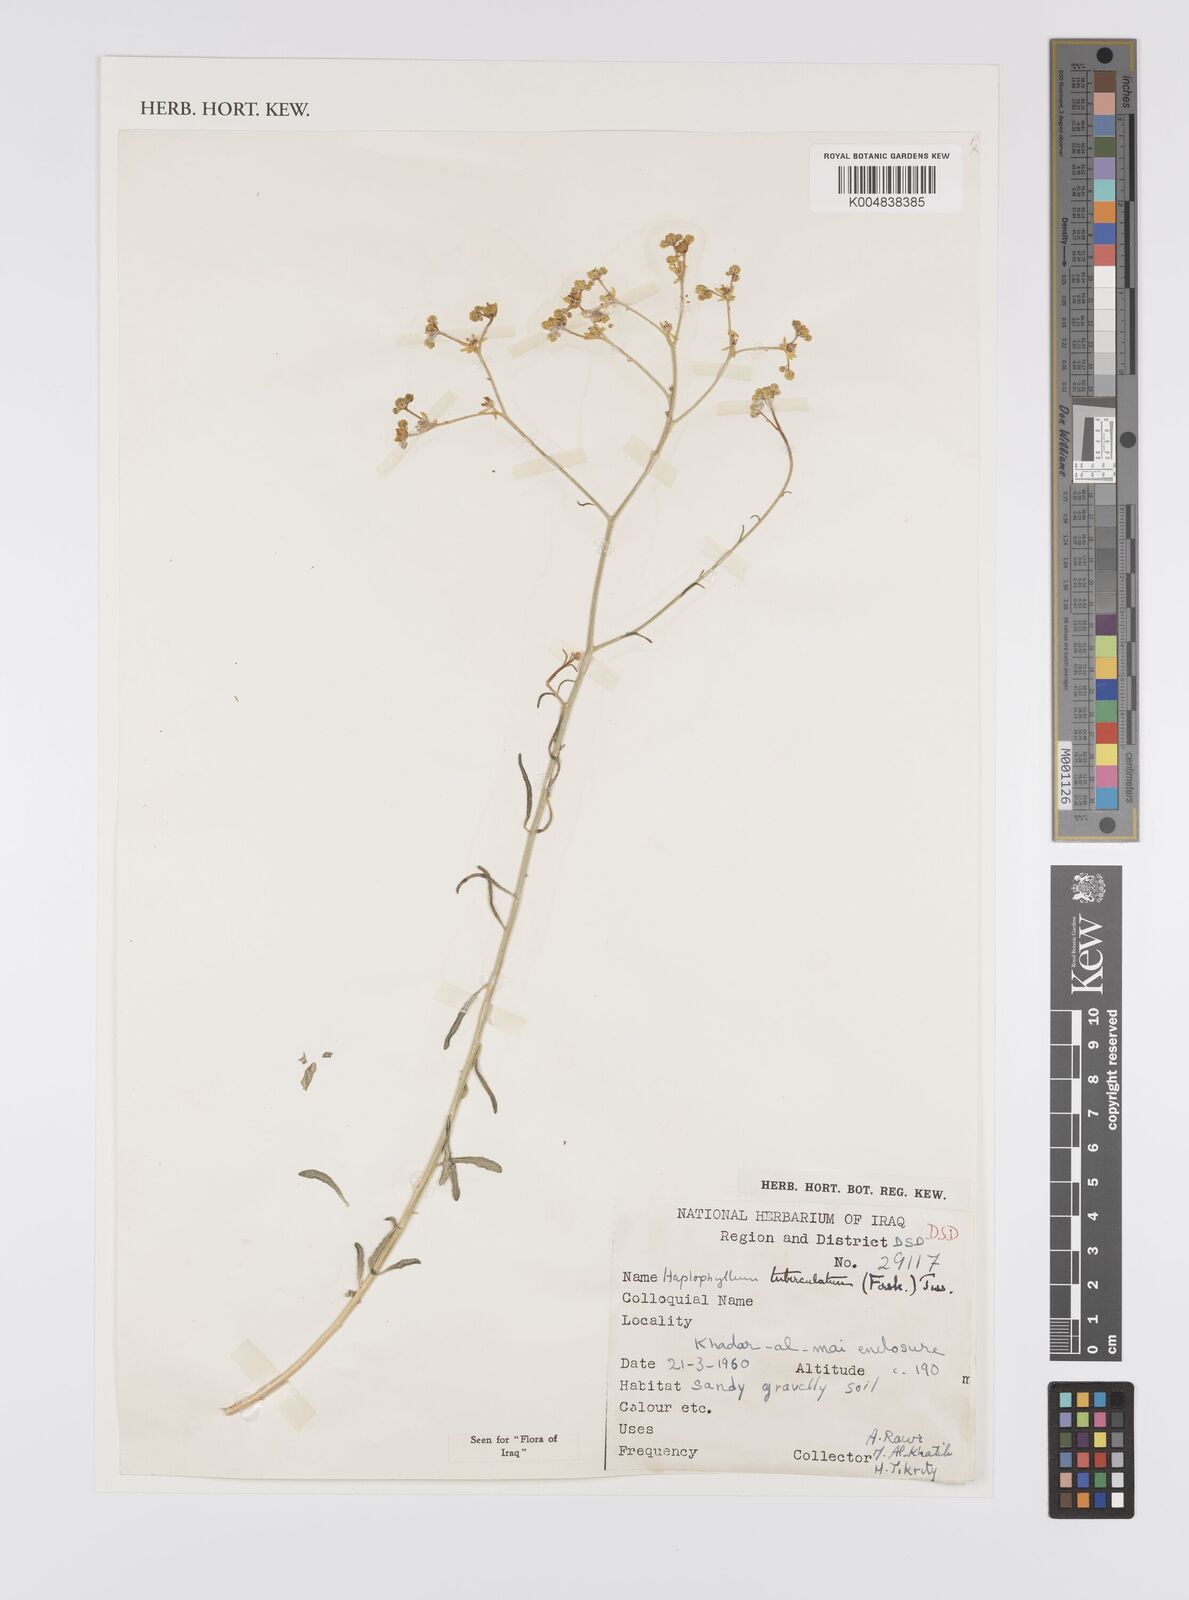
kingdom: Plantae
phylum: Tracheophyta
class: Magnoliopsida
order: Sapindales
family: Rutaceae
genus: Haplophyllum
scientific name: Haplophyllum tuberculatum
